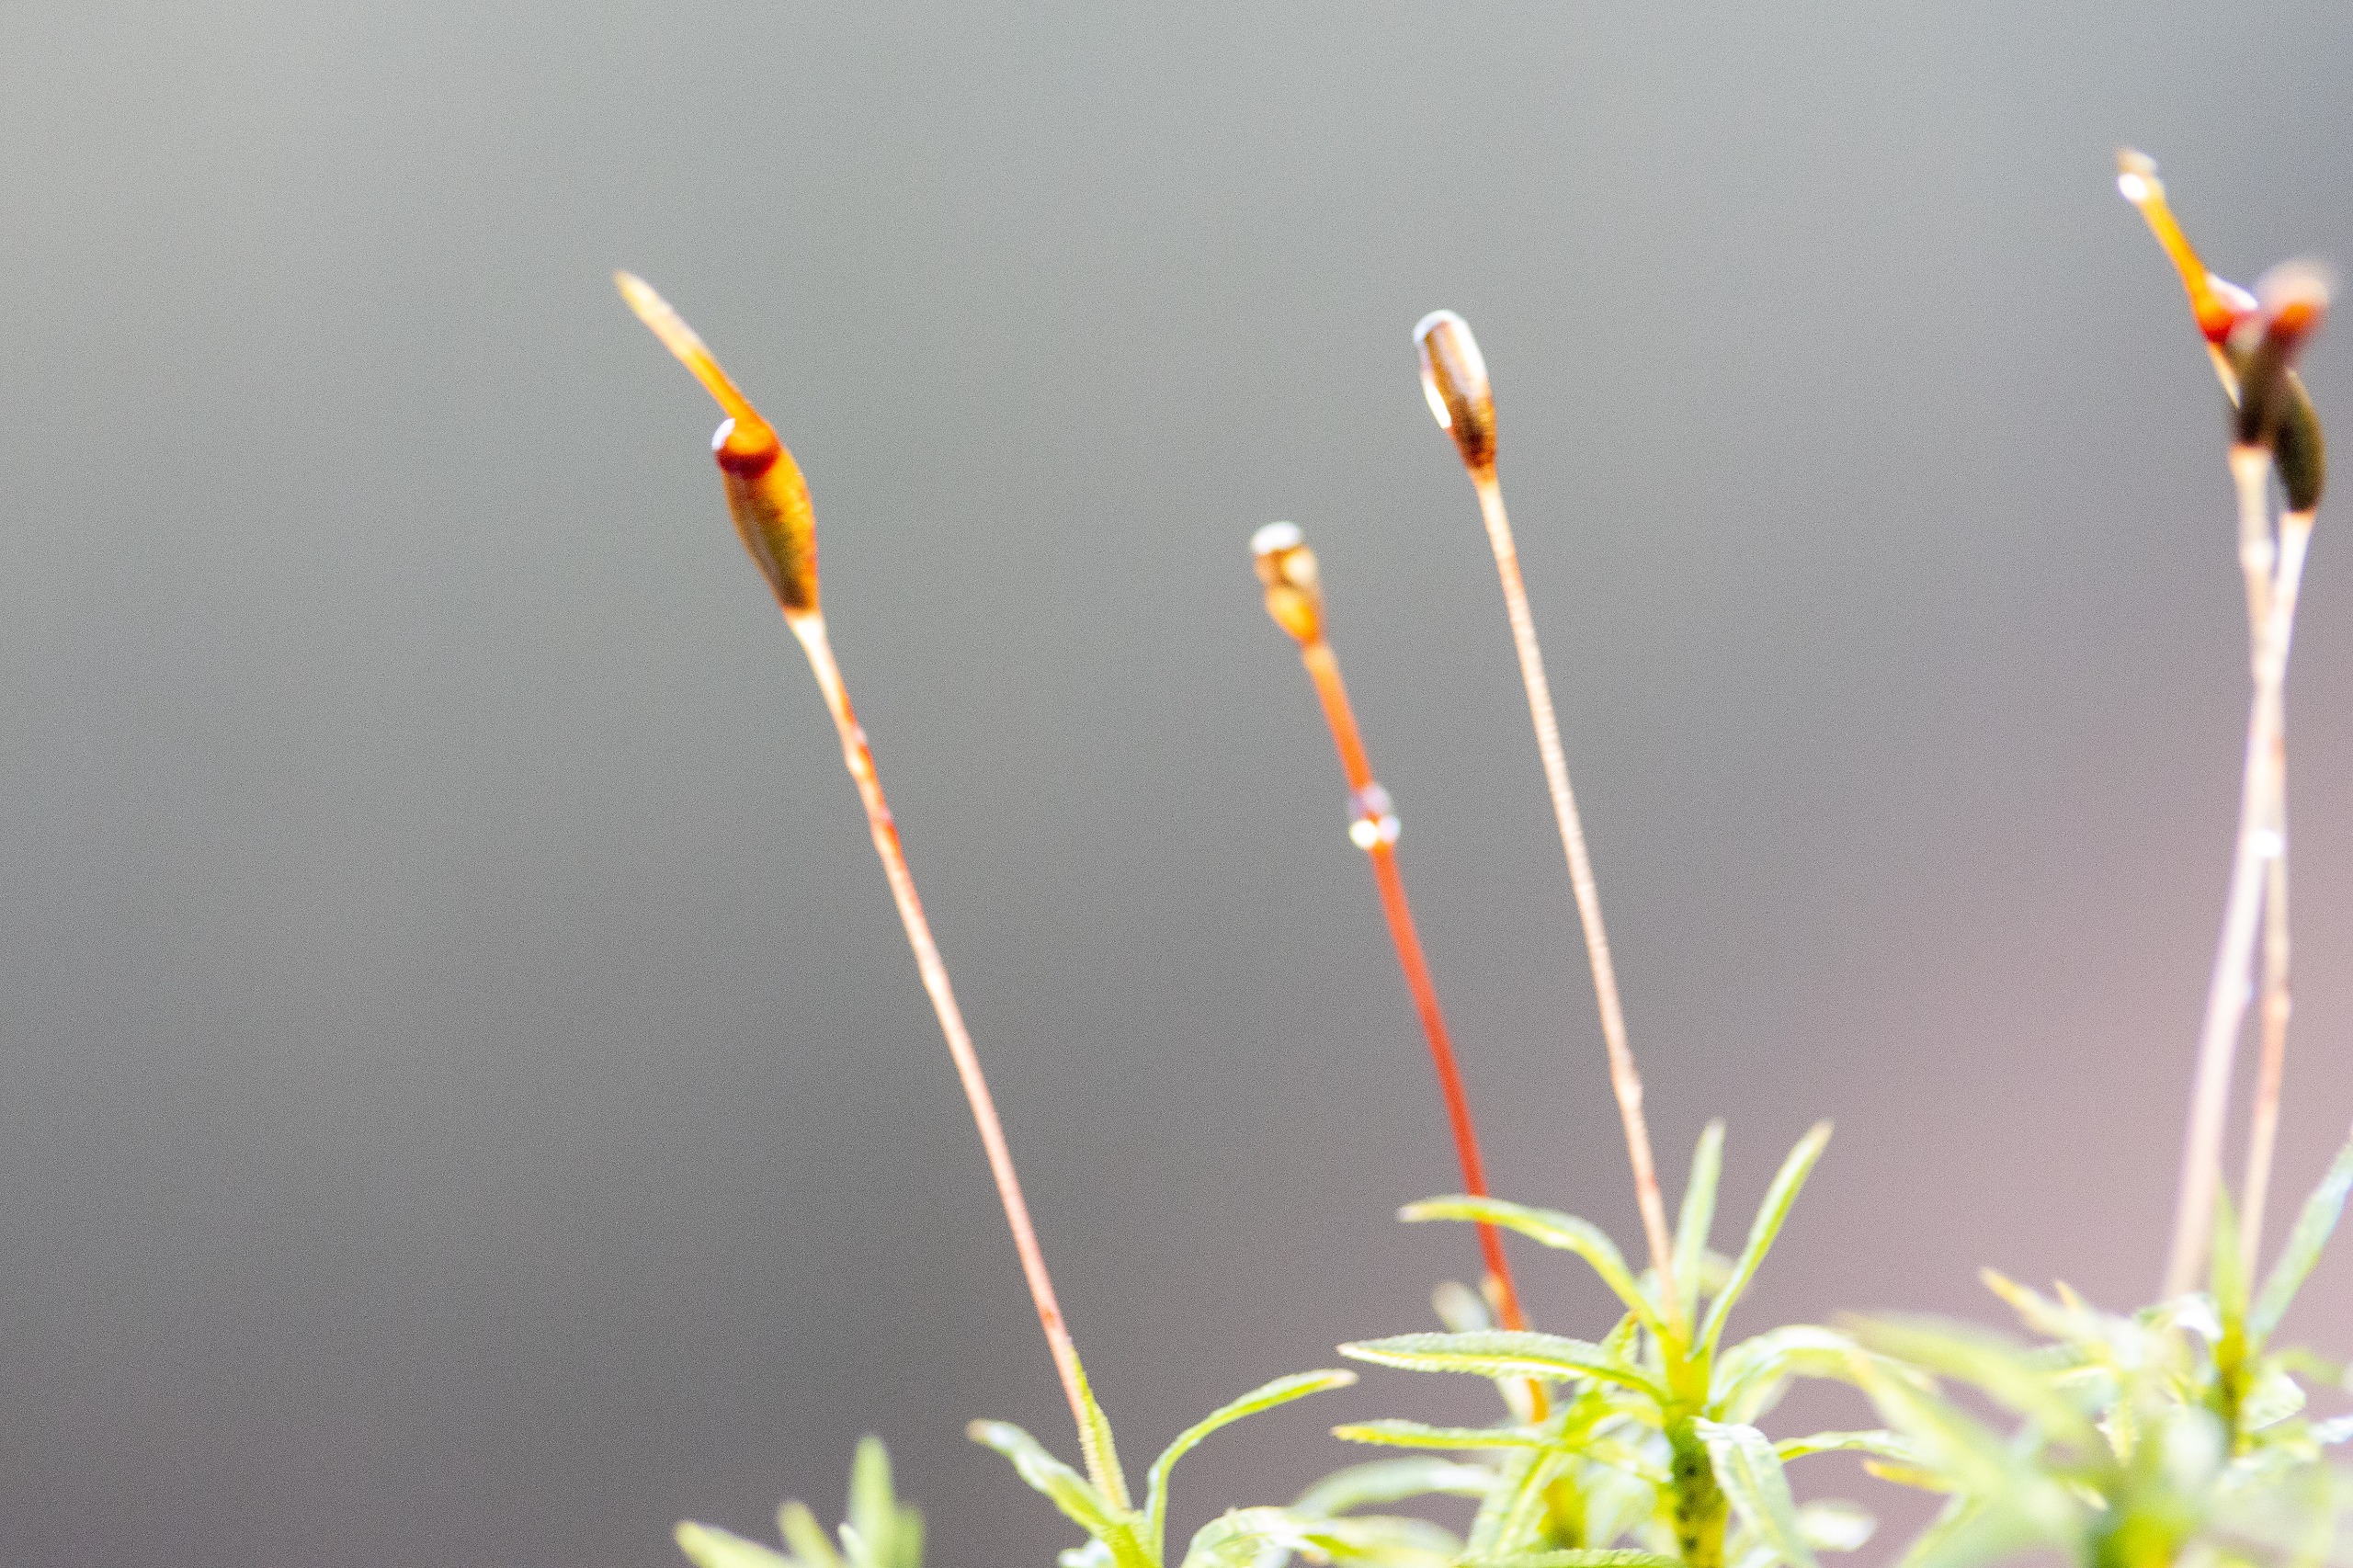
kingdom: Plantae
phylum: Bryophyta
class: Polytrichopsida
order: Polytrichales
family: Polytrichaceae
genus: Atrichum
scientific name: Atrichum undulatum
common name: Bølget katrinemos
